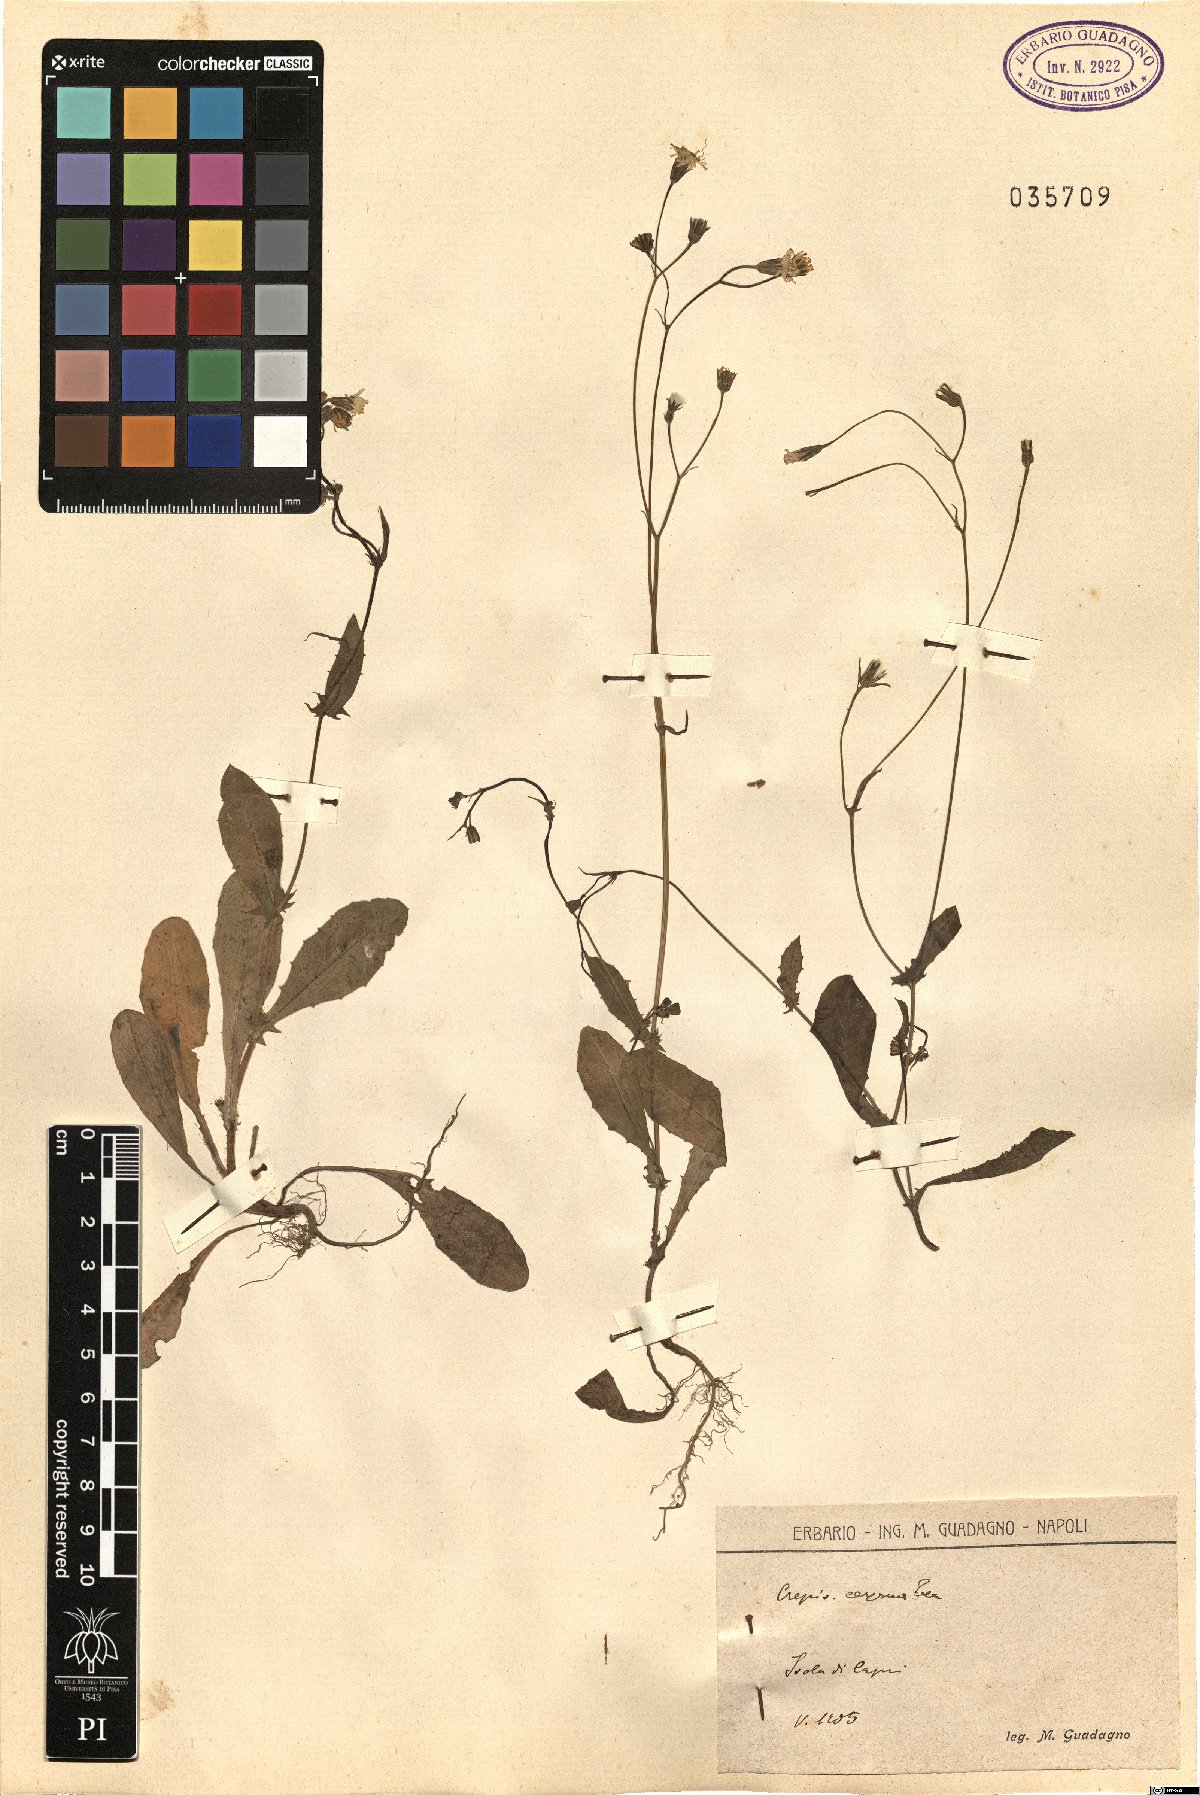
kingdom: Plantae
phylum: Tracheophyta
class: Magnoliopsida
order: Asterales
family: Asteraceae
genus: Crepis
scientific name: Crepis neglecta
